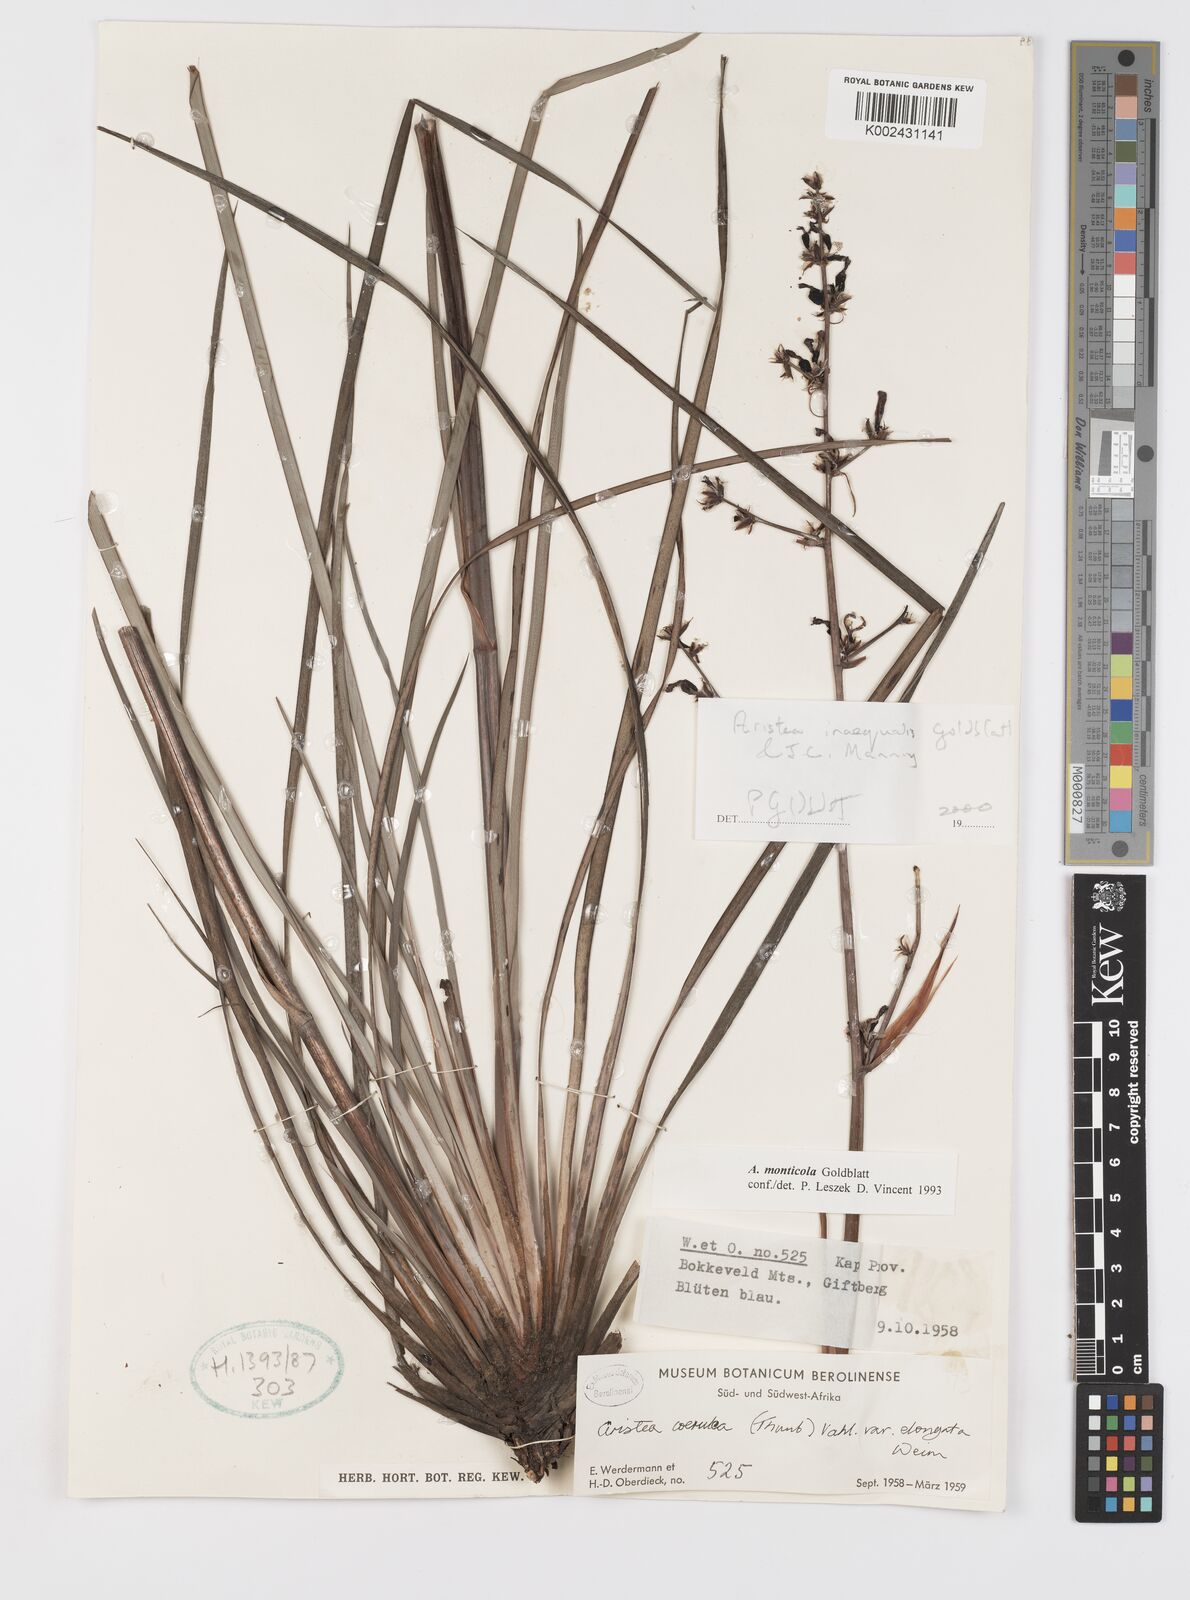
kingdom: Plantae
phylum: Tracheophyta
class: Liliopsida
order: Asparagales
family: Iridaceae
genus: Aristea
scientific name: Aristea monticola
